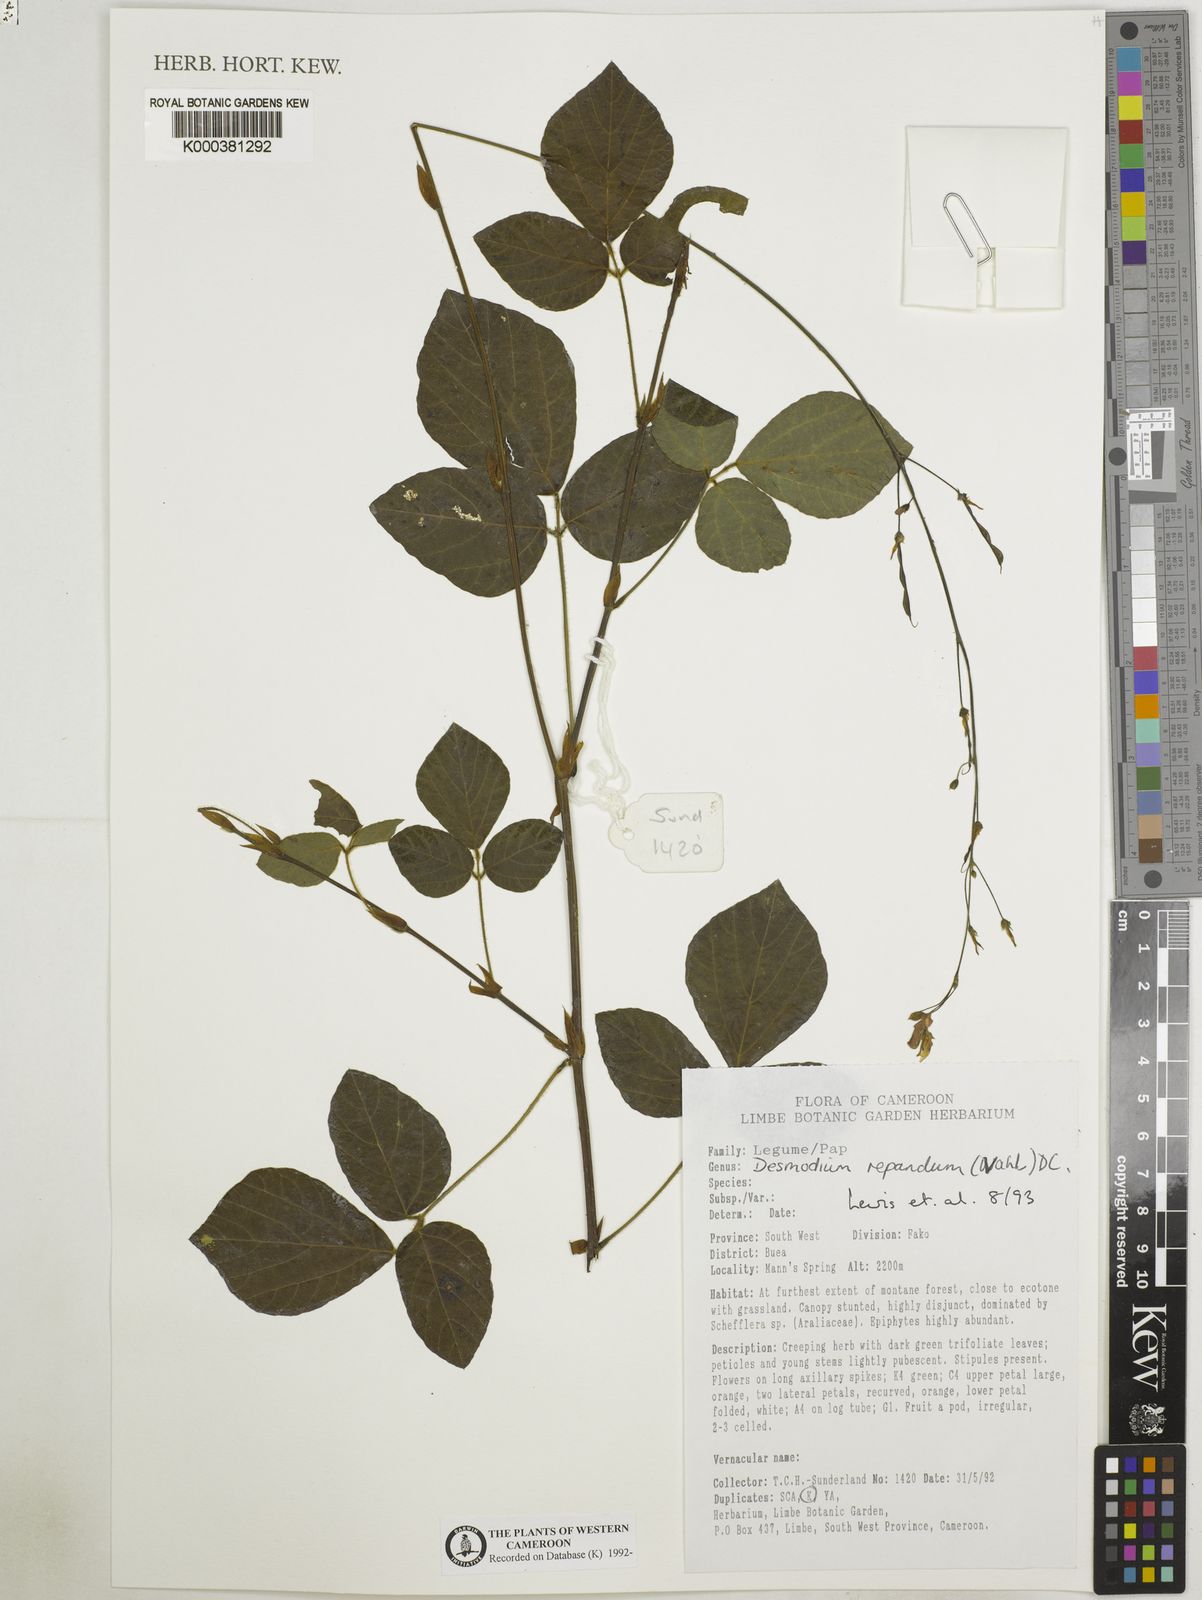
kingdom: Plantae
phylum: Tracheophyta
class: Magnoliopsida
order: Fabales
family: Fabaceae
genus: Desmodium
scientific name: Desmodium
